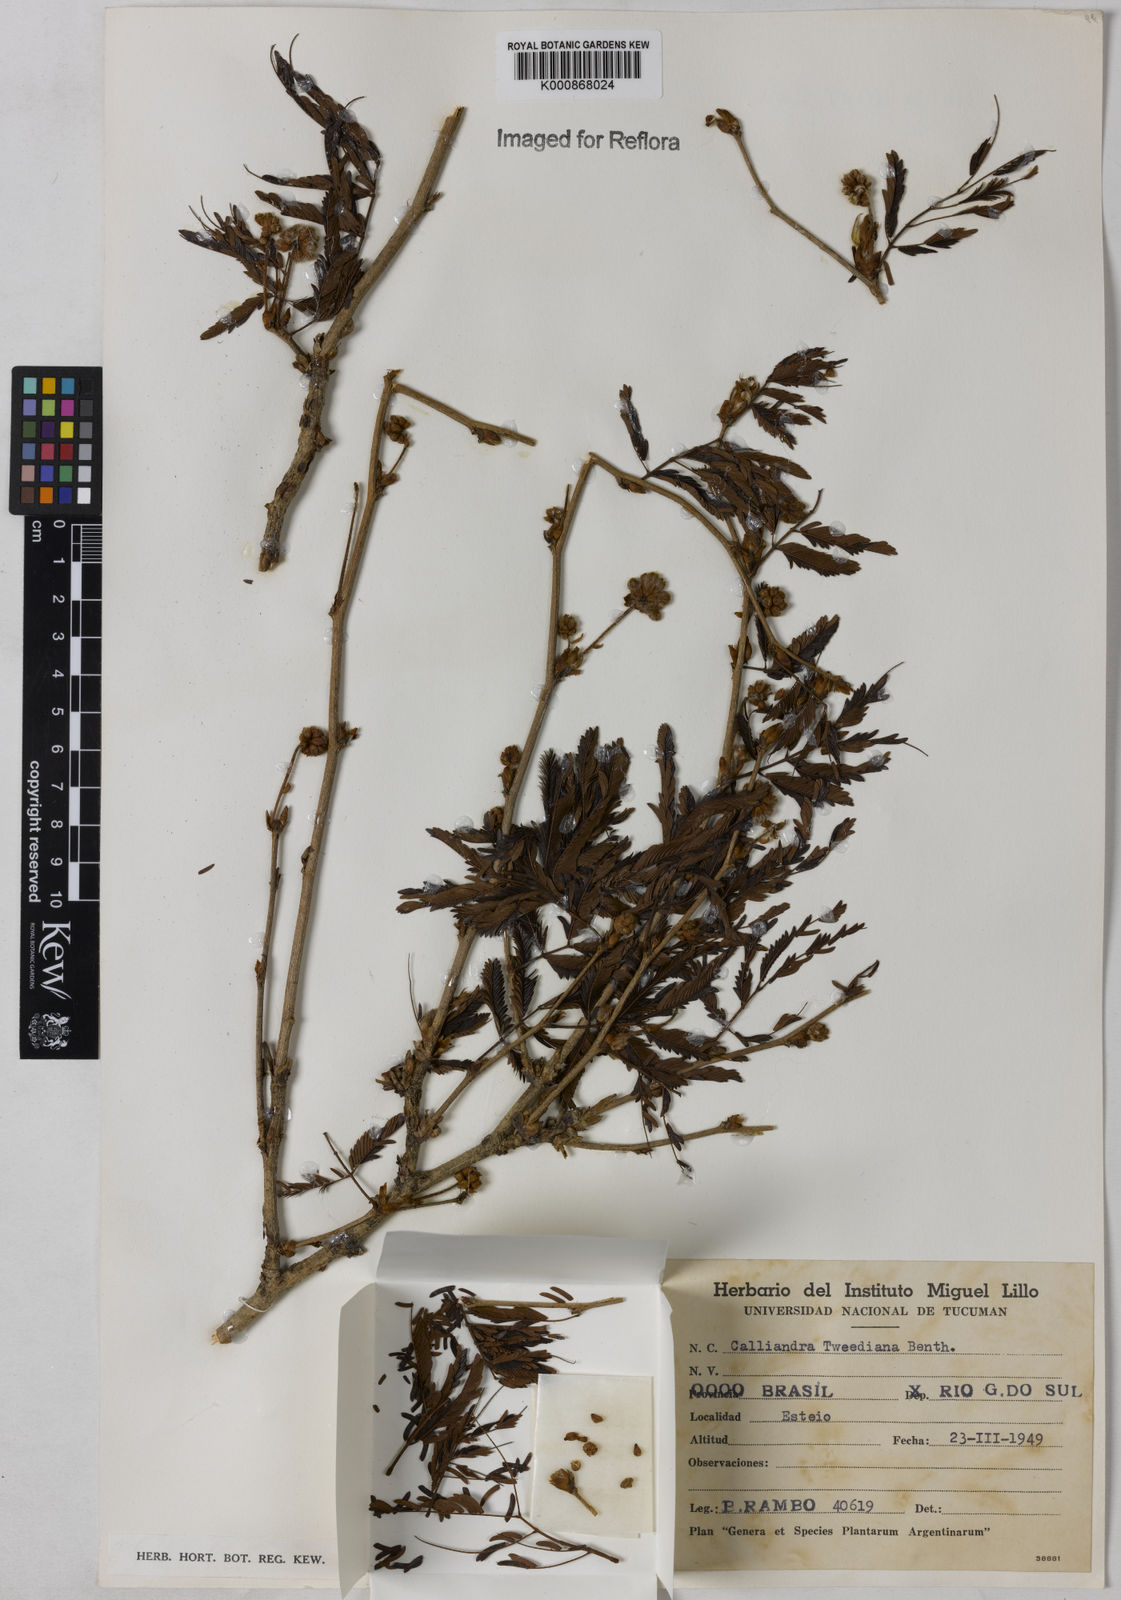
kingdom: Plantae
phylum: Tracheophyta
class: Magnoliopsida
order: Fabales
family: Fabaceae
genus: Calliandra
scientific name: Calliandra tweediei
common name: Mexican flamebush
